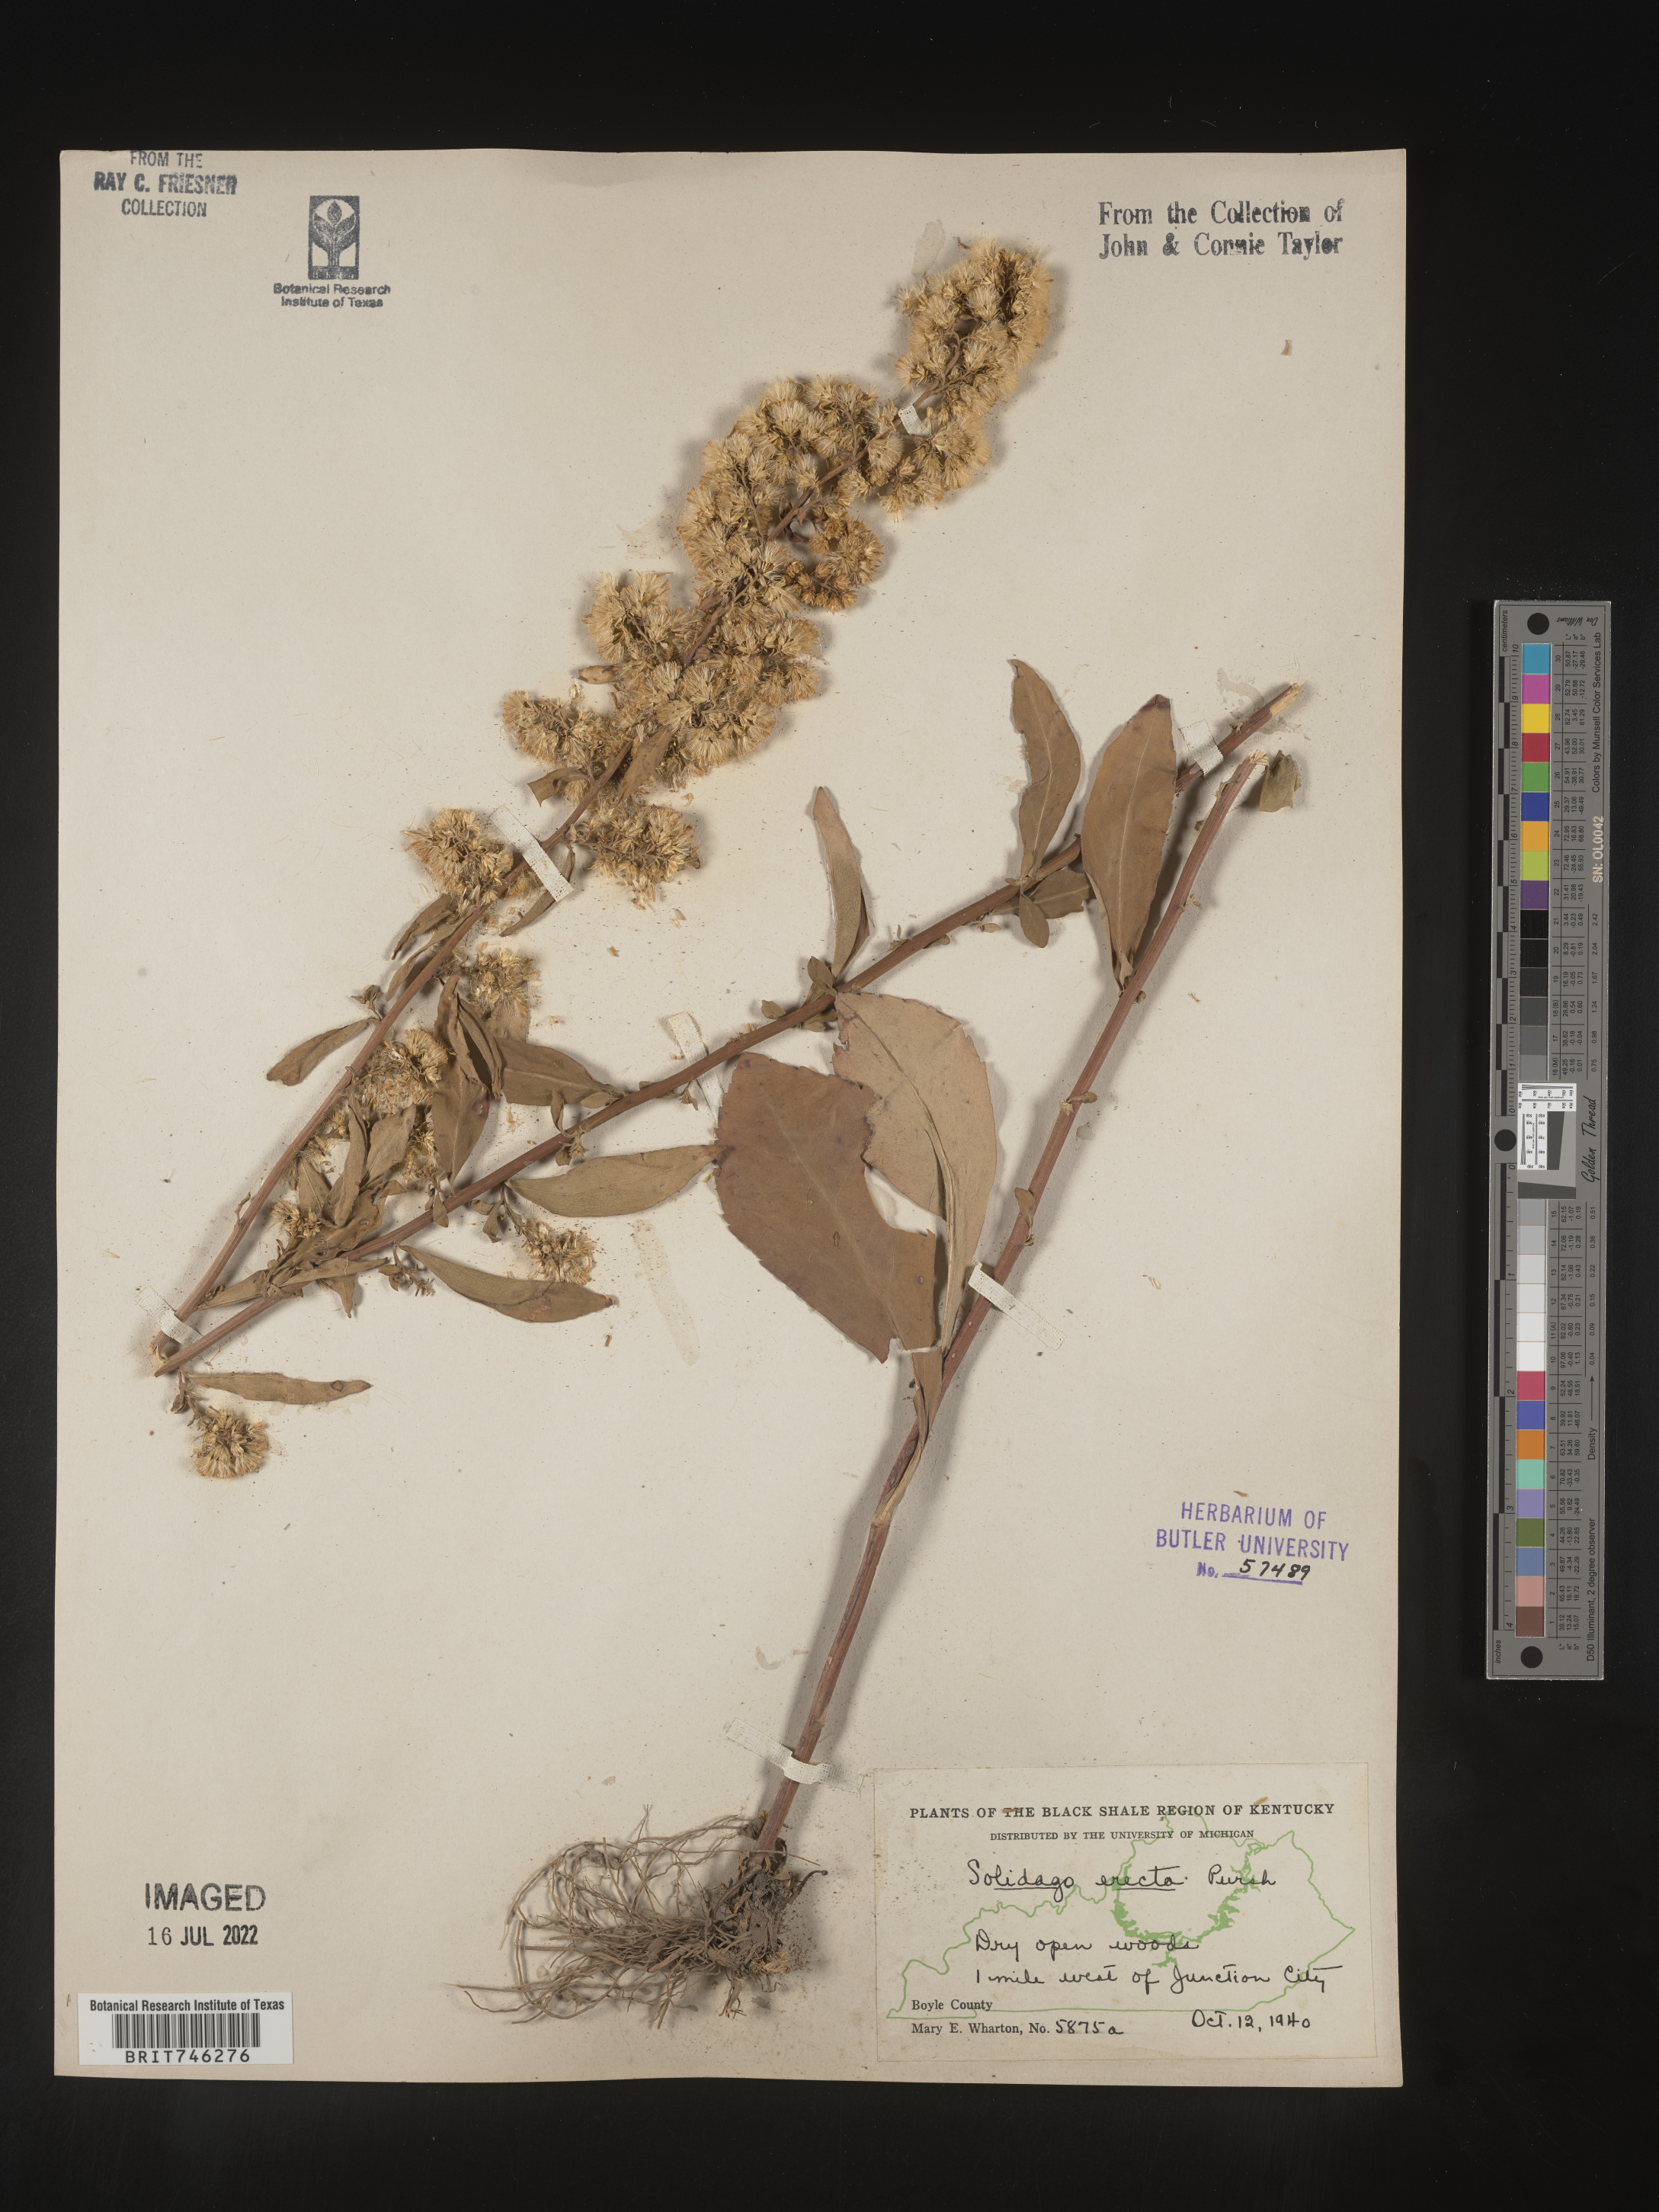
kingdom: Plantae
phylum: Tracheophyta
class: Magnoliopsida
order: Asterales
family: Asteraceae
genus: Solidago
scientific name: Solidago erecta
